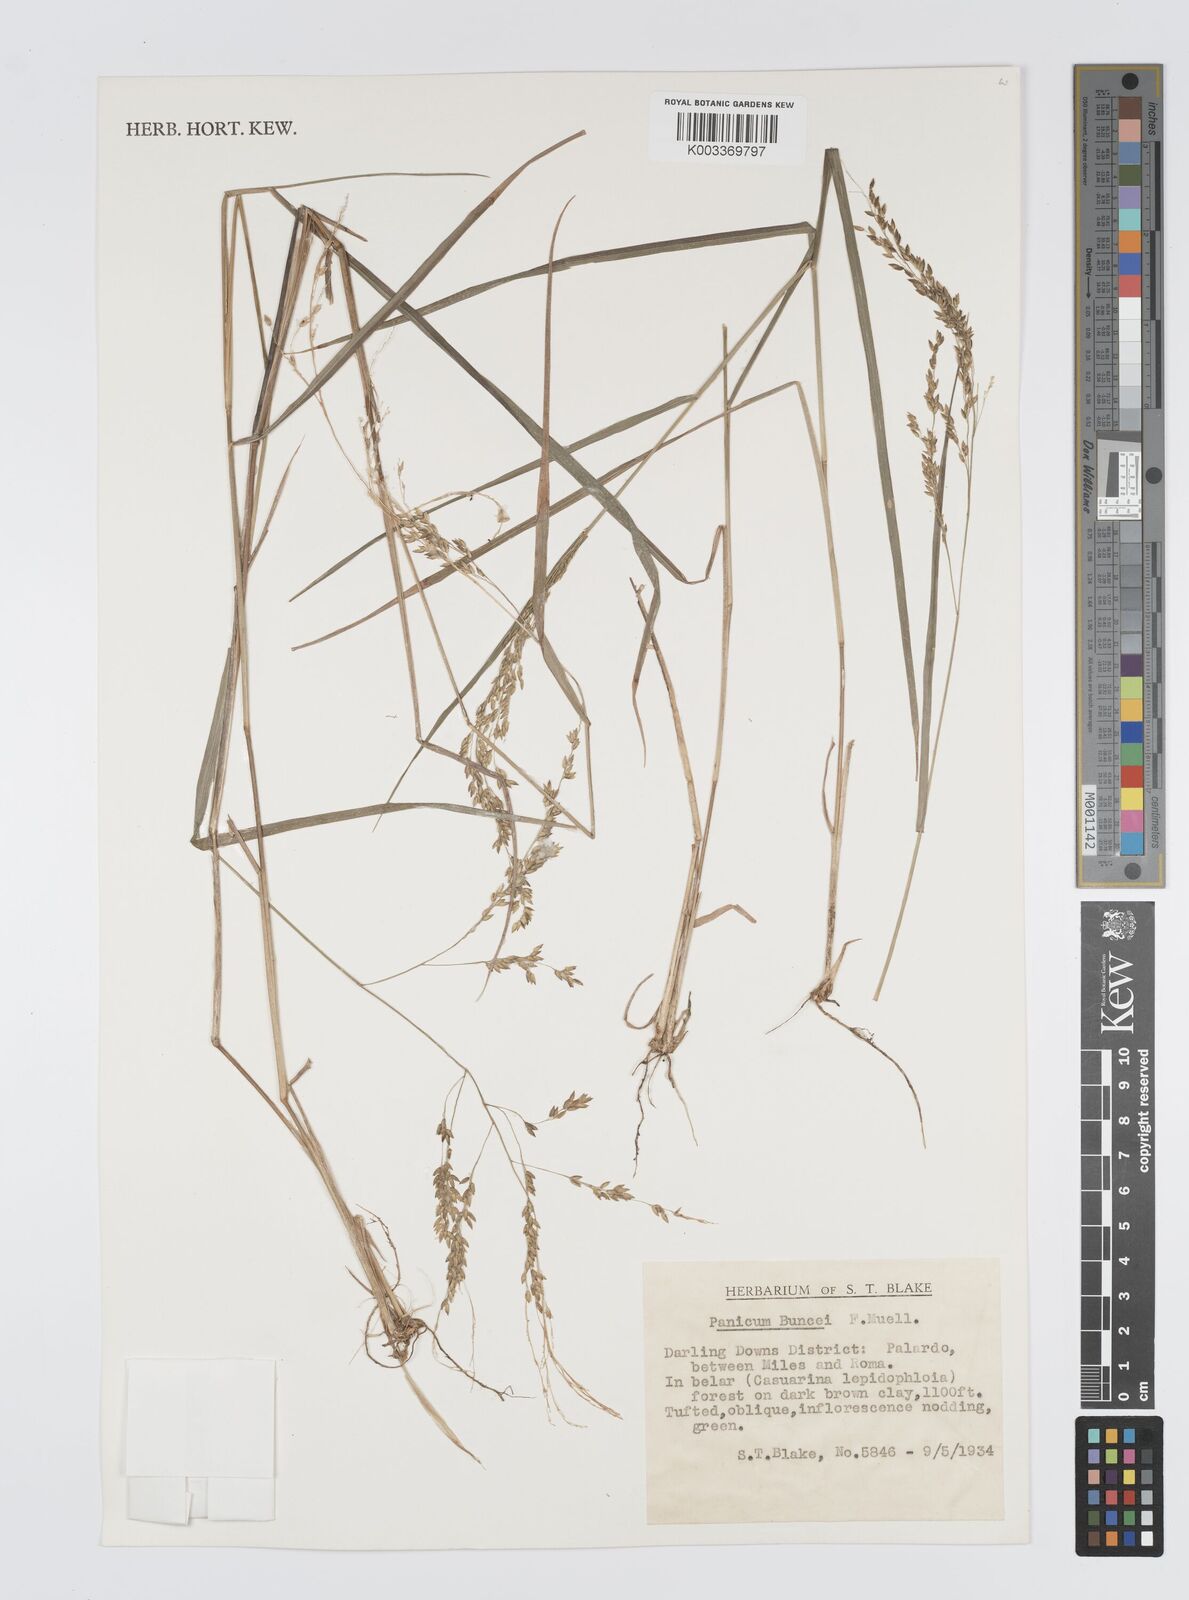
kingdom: Plantae
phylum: Tracheophyta
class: Liliopsida
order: Poales
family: Poaceae
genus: Panicum
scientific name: Panicum buncei
